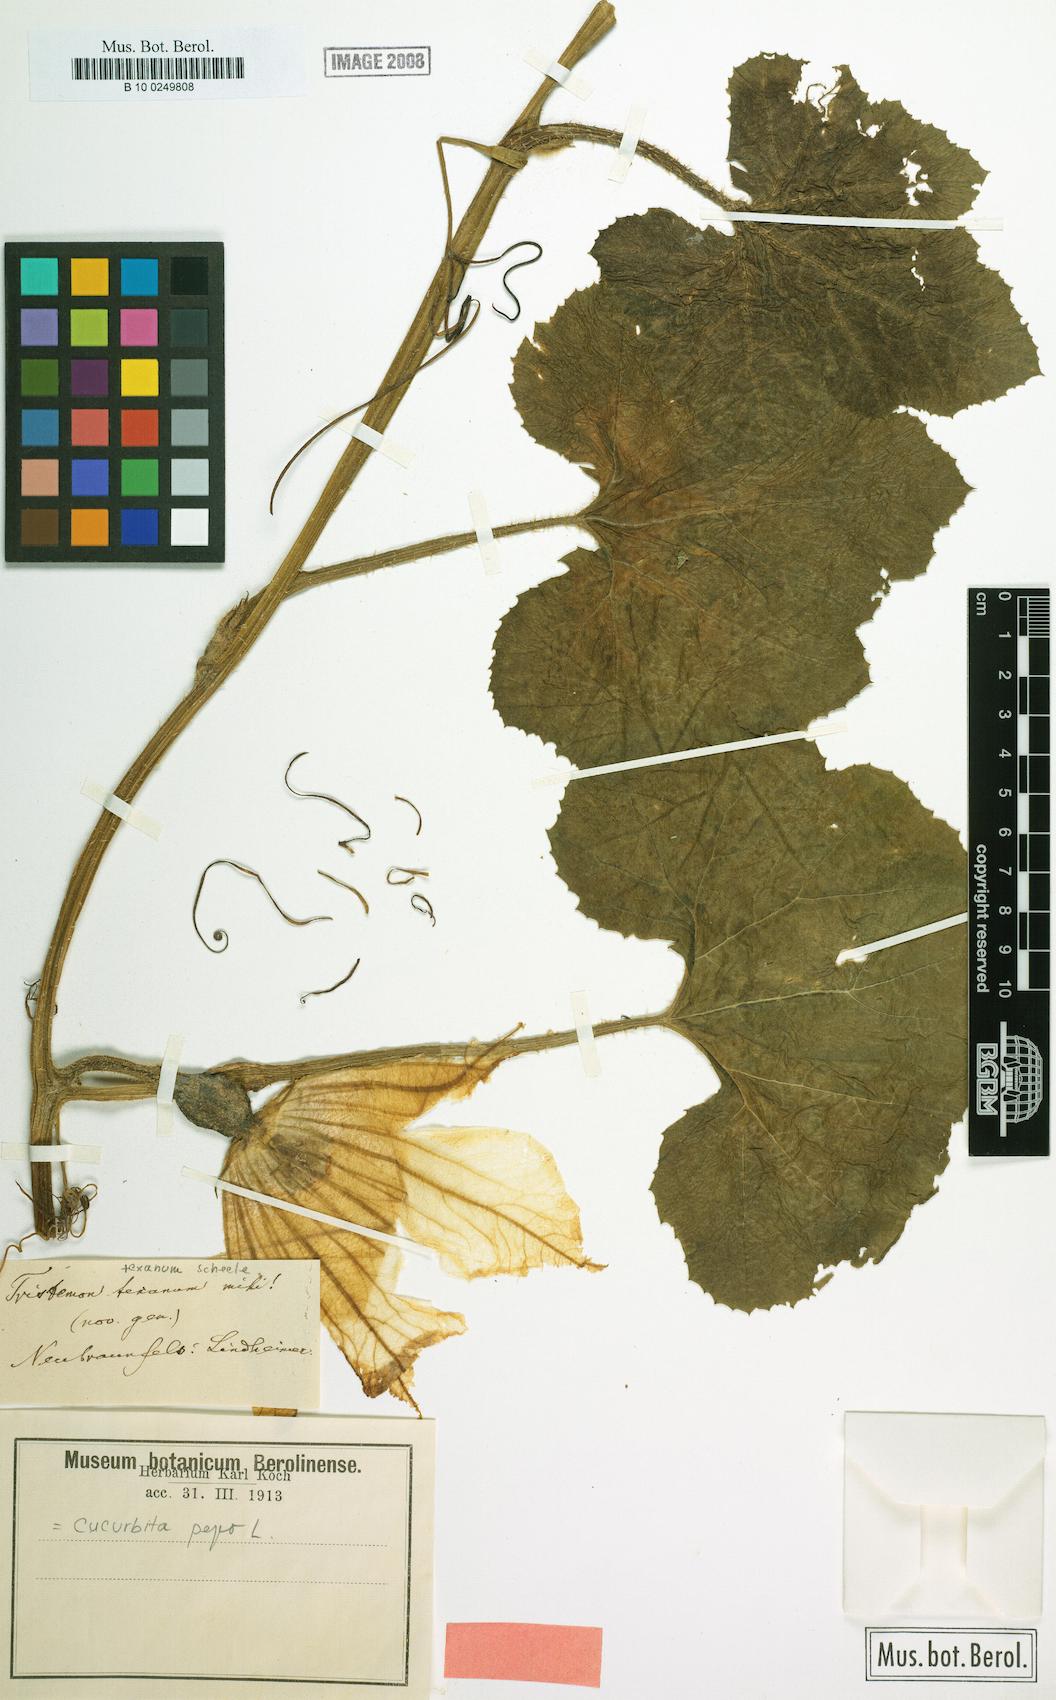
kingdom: Plantae
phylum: Tracheophyta
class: Magnoliopsida
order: Cucurbitales
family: Cucurbitaceae
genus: Cucurbita
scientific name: Cucurbita pepo
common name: Marrow
